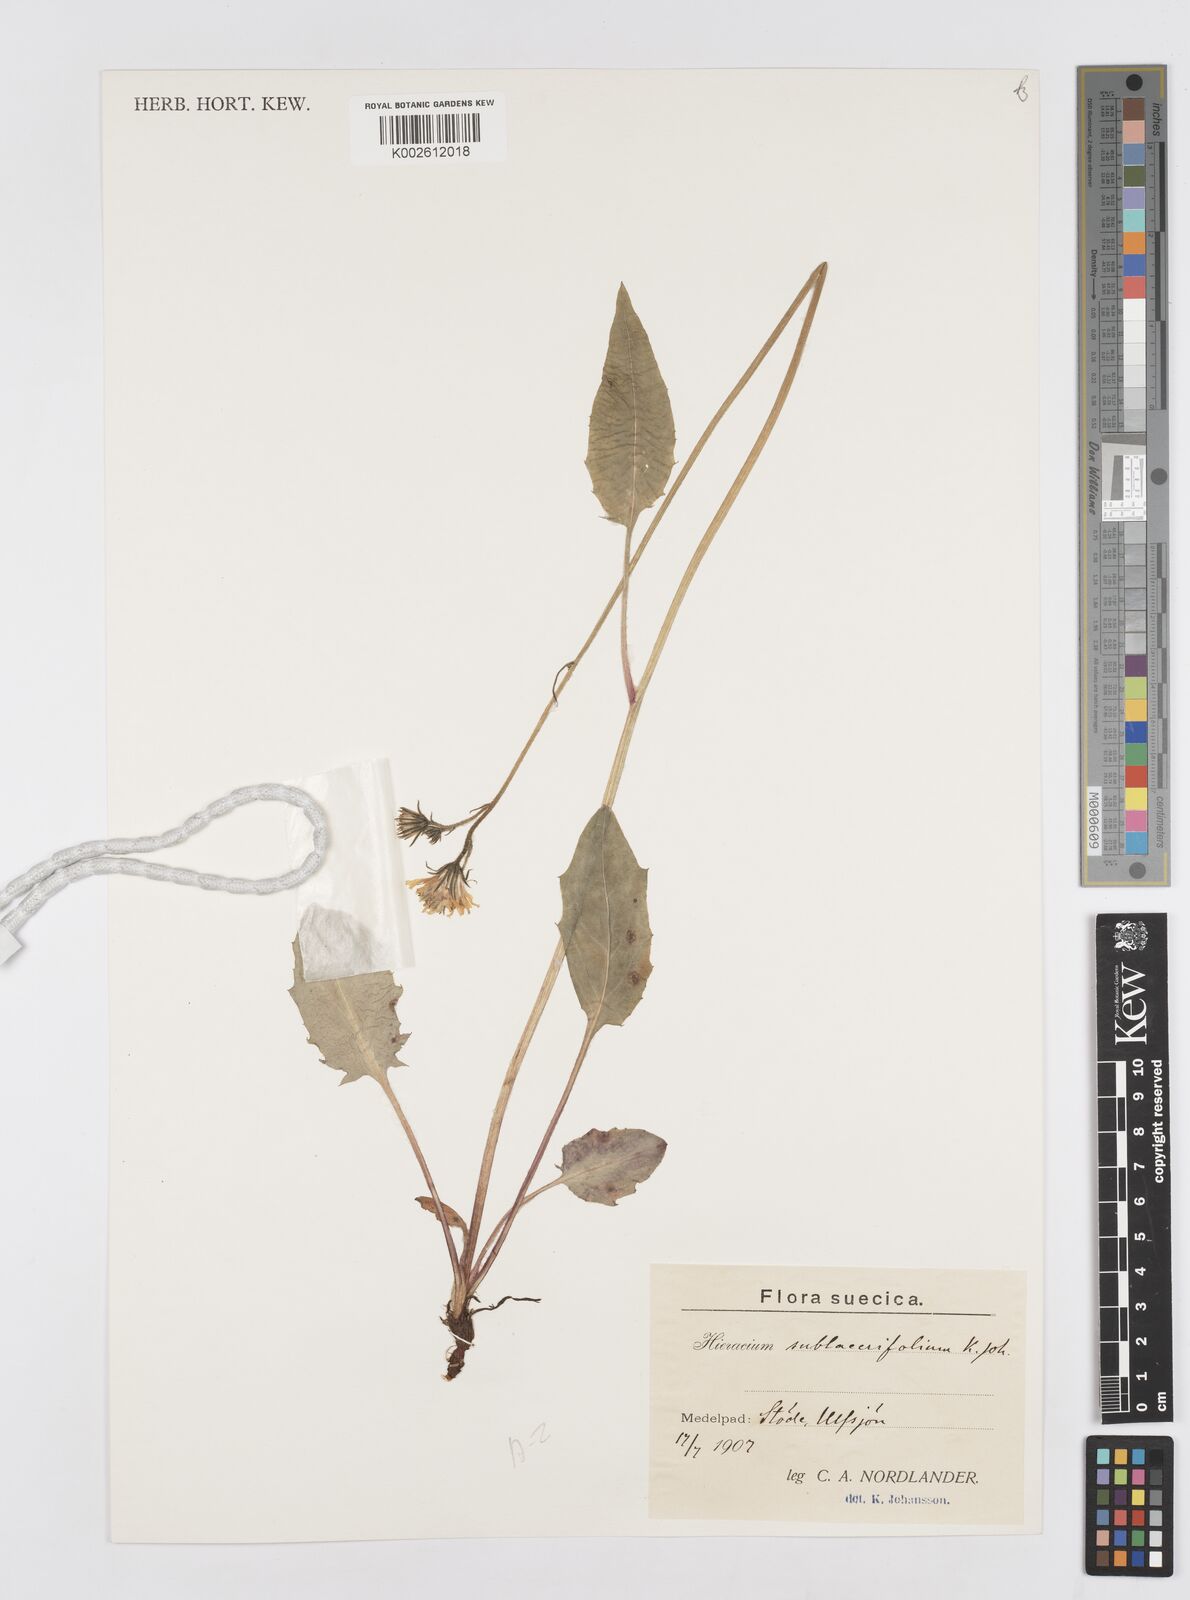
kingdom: Plantae
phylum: Tracheophyta
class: Magnoliopsida
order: Asterales
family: Asteraceae
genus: Hieracium
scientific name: Hieracium
